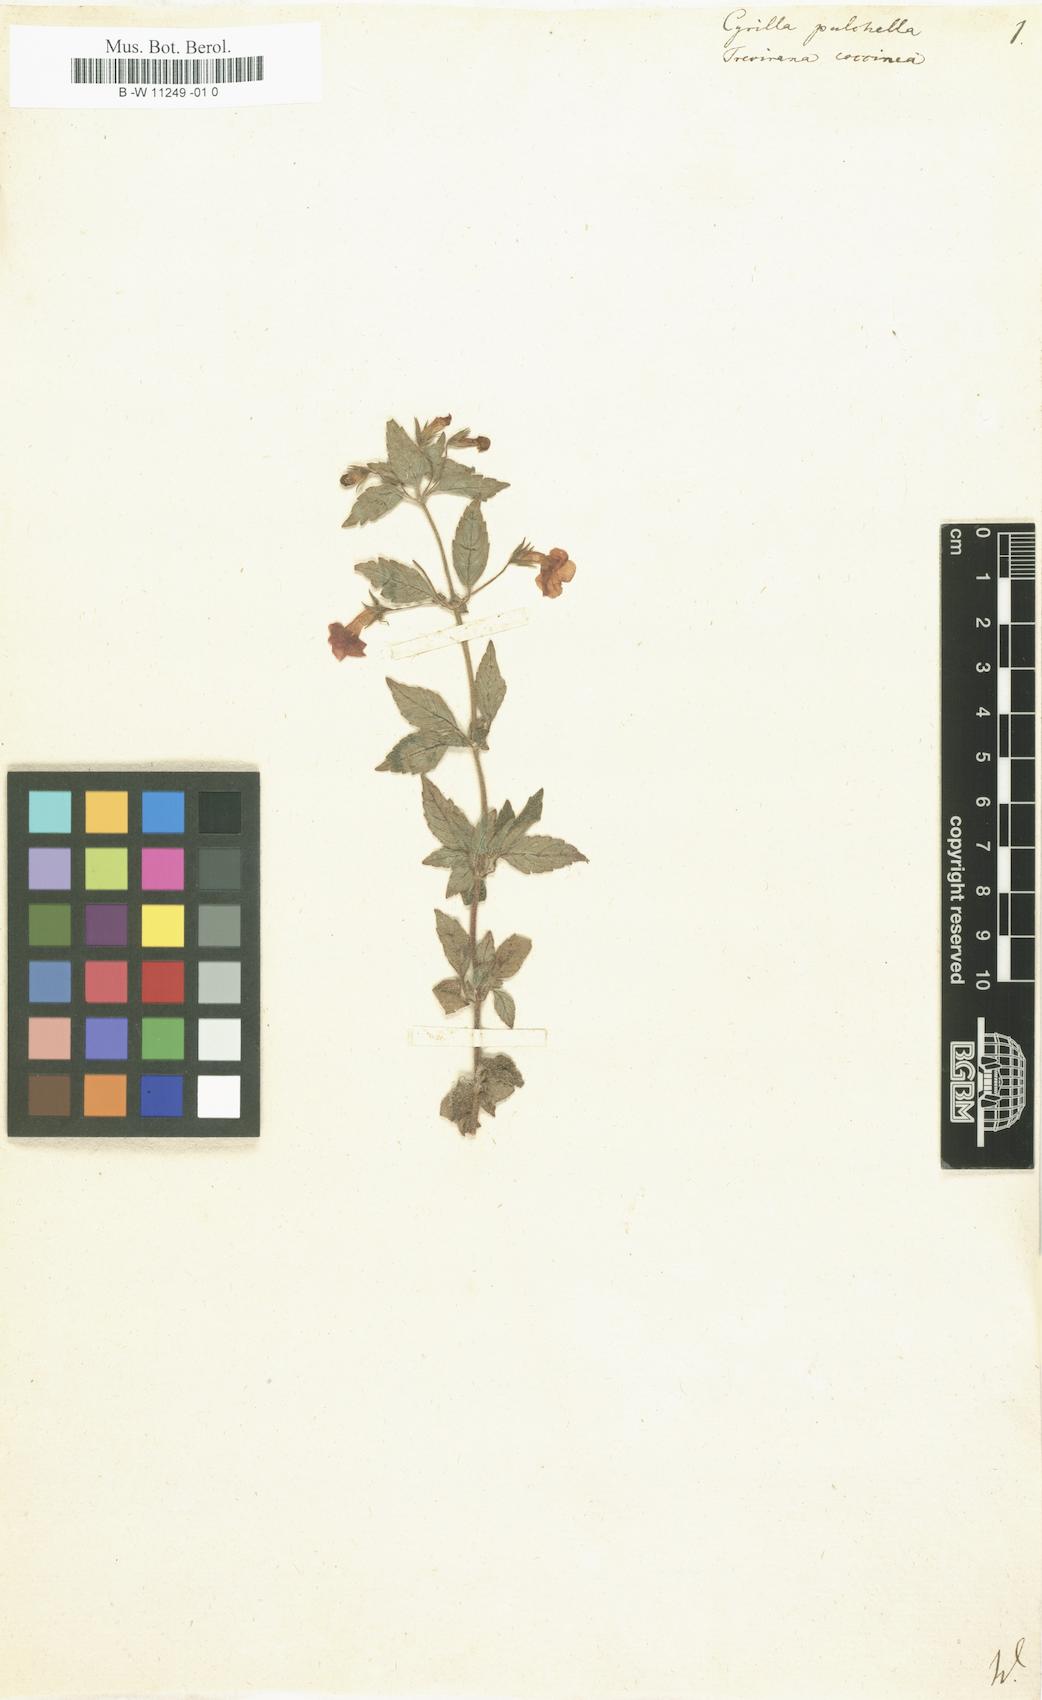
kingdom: Plantae
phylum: Tracheophyta
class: Magnoliopsida
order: Lamiales
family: Gesneriaceae
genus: Achimenes
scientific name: Achimenes erecta
